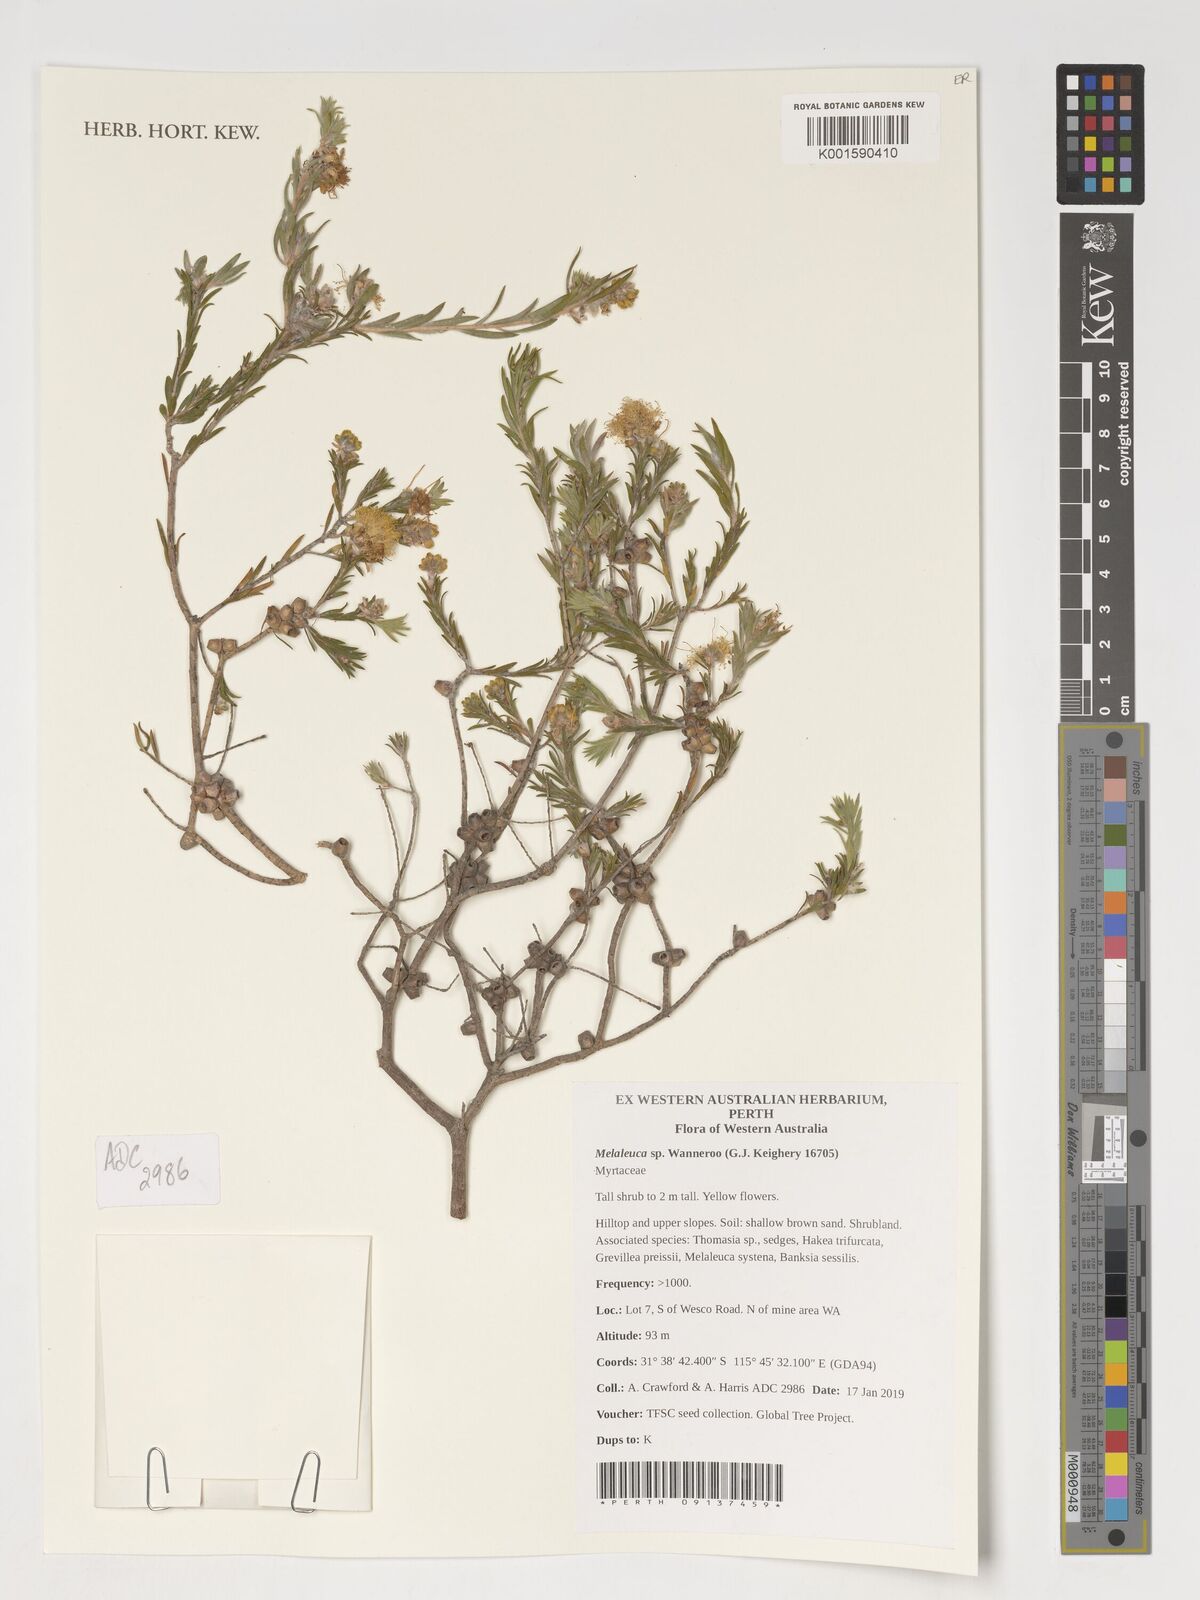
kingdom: Plantae
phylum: Tracheophyta
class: Magnoliopsida
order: Myrtales
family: Myrtaceae
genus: Melaleuca
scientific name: Melaleuca
